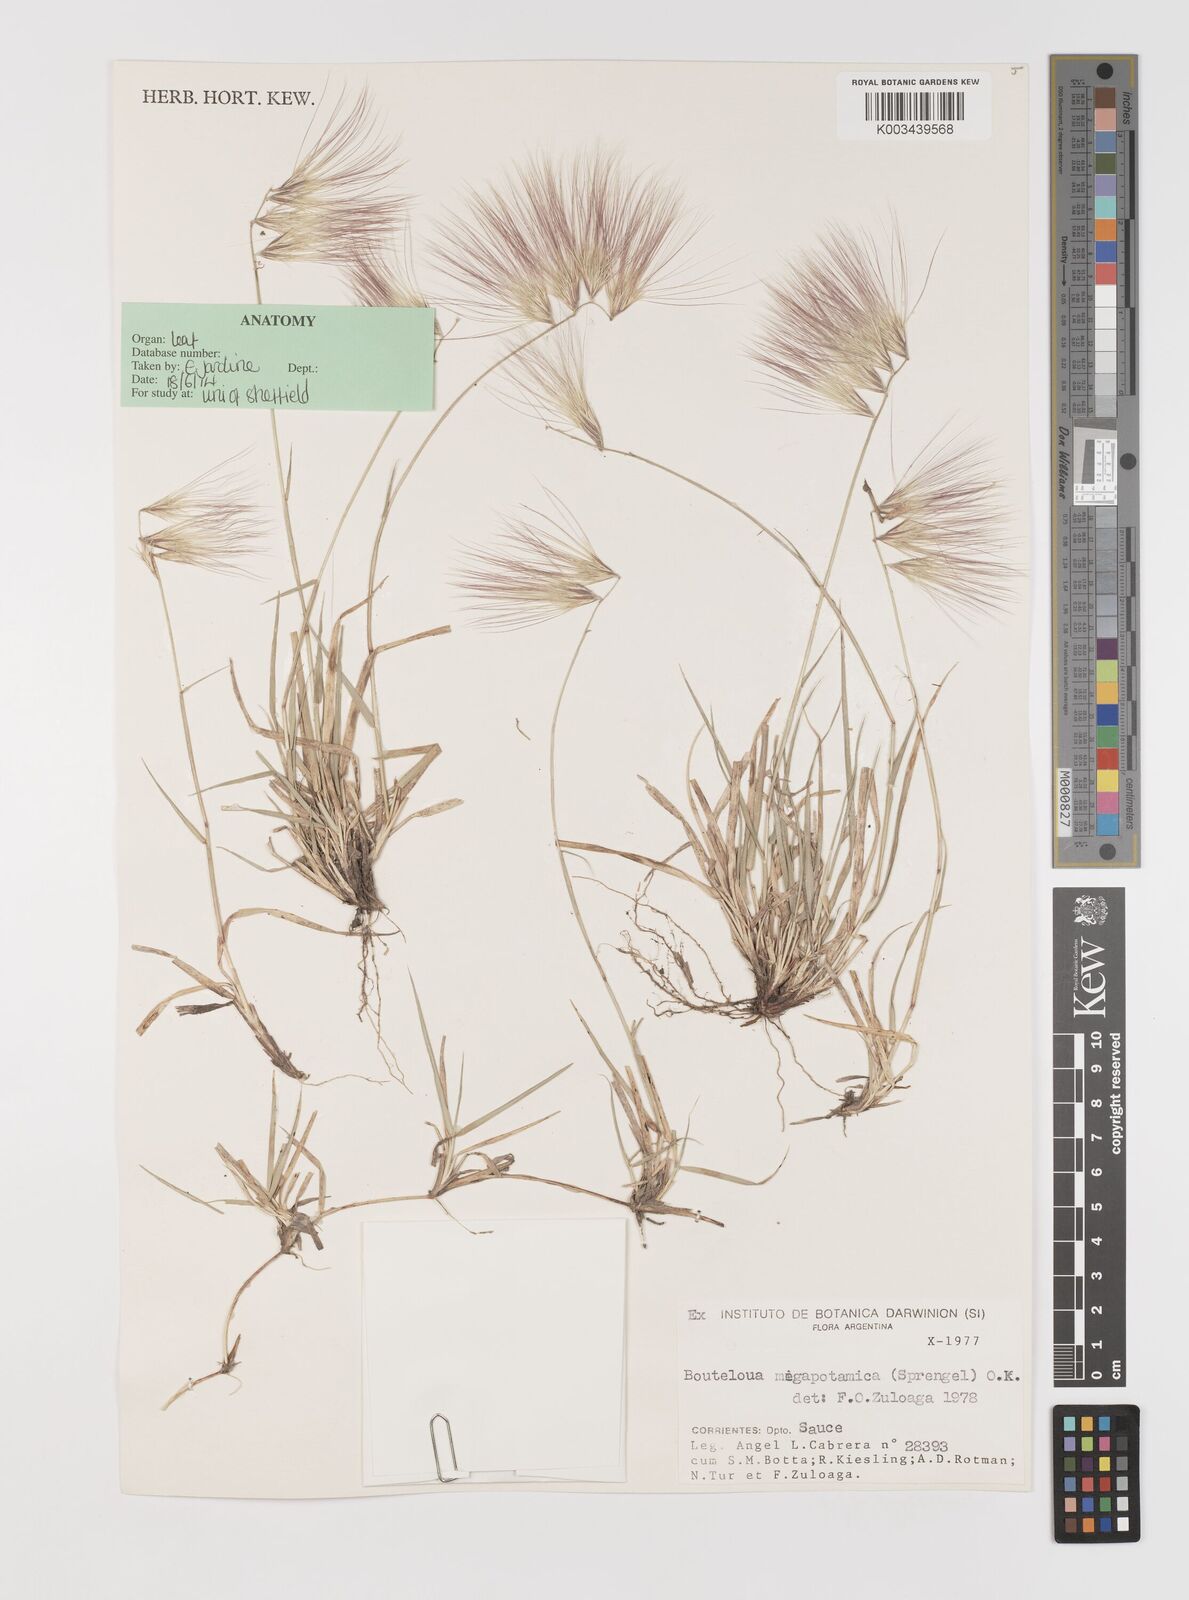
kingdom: Plantae
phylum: Tracheophyta
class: Liliopsida
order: Poales
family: Poaceae
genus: Bouteloua
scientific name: Bouteloua megapotamica
